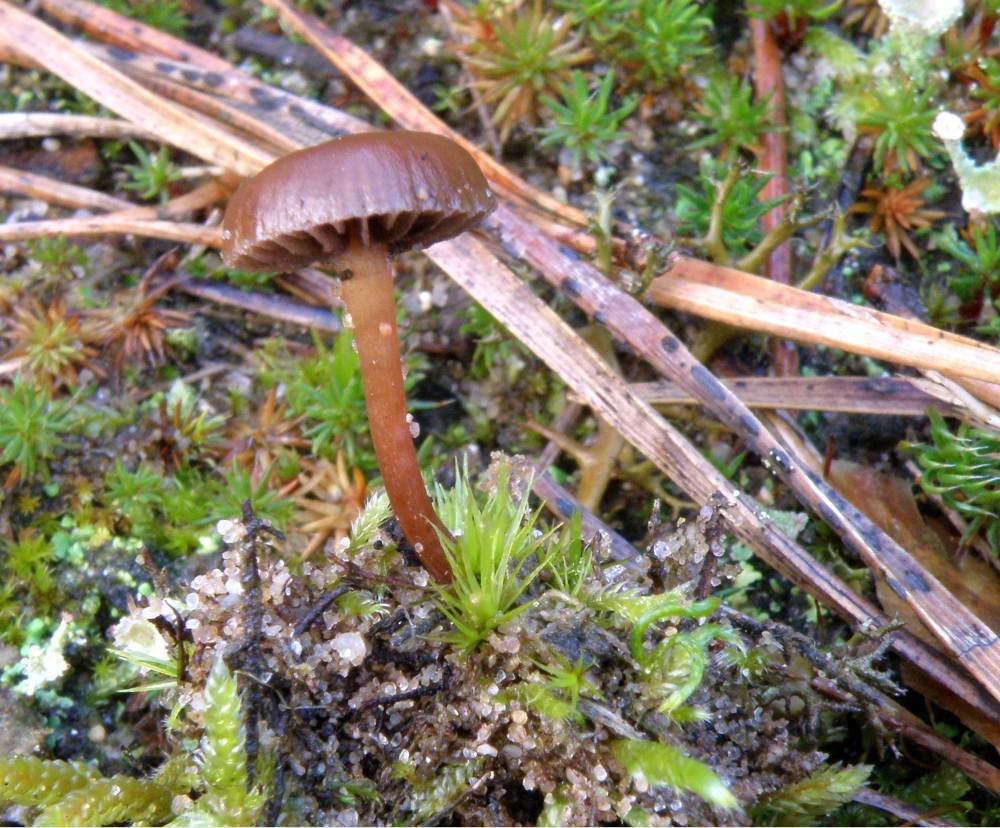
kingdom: Fungi
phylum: Basidiomycota
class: Agaricomycetes
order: Agaricales
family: Strophariaceae
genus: Deconica
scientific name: Deconica montana
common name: rødbrun stråhat
